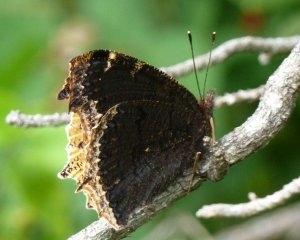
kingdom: Animalia
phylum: Arthropoda
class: Insecta
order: Lepidoptera
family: Nymphalidae
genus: Nymphalis
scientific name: Nymphalis antiopa
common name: Mourning Cloak
